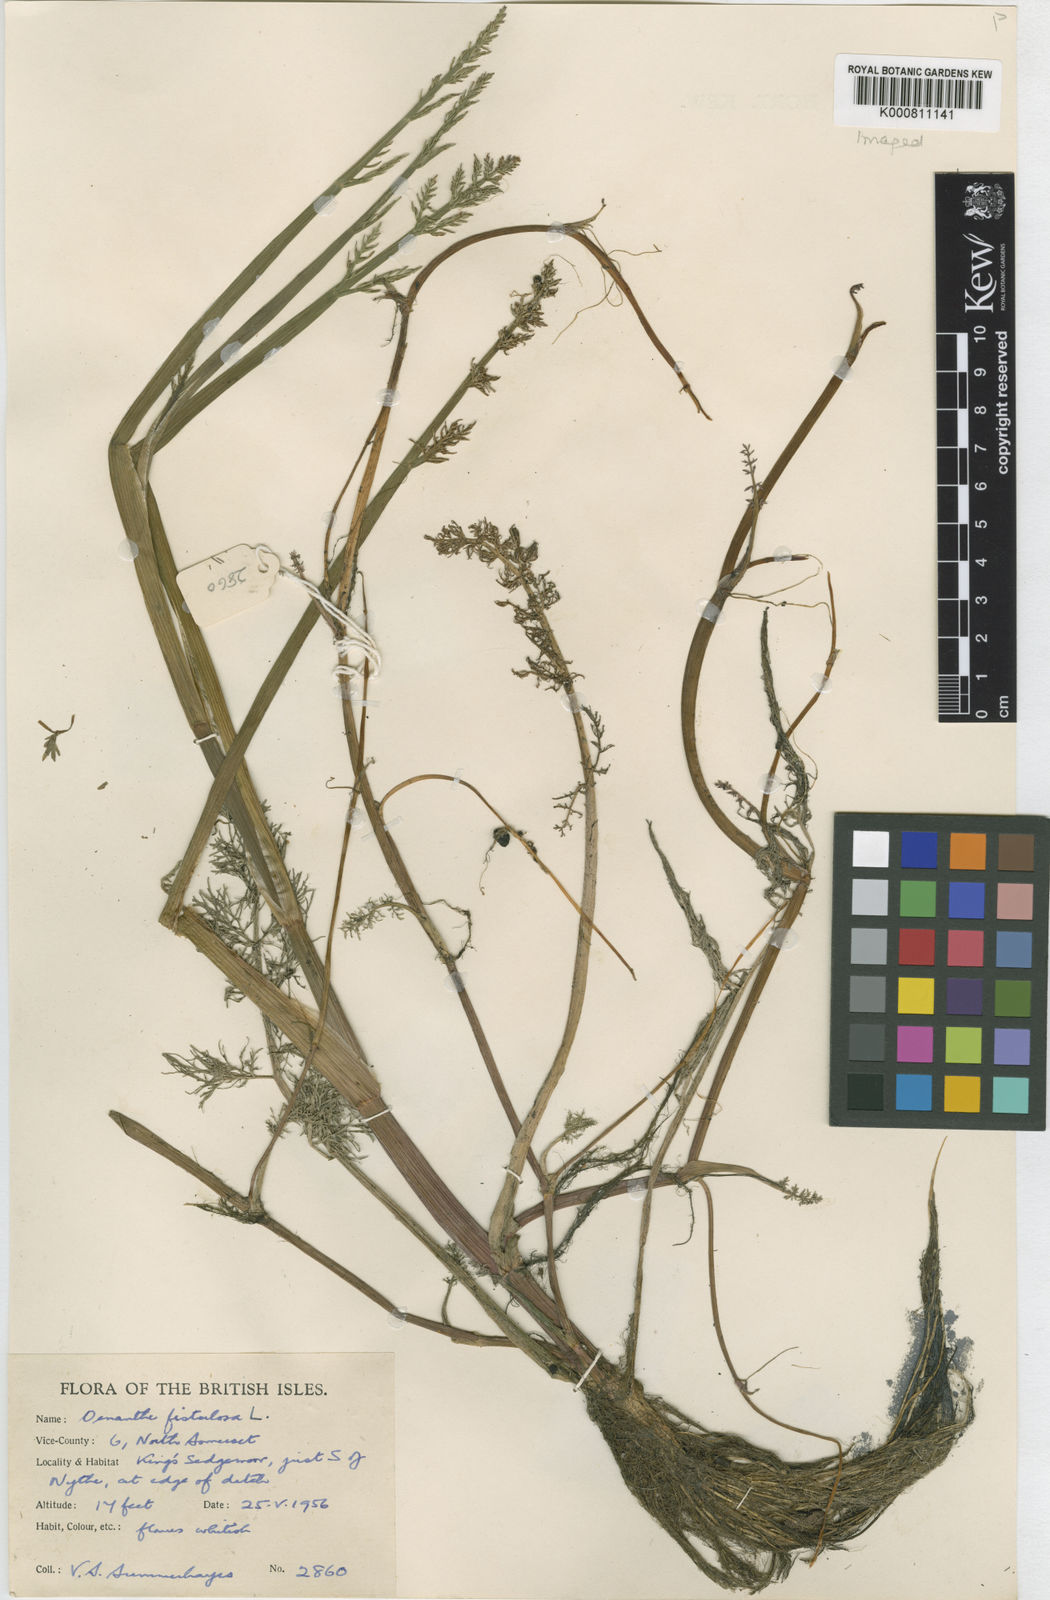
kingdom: Plantae
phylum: Tracheophyta
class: Magnoliopsida
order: Apiales
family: Apiaceae
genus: Oenanthe
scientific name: Oenanthe fistulosa
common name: Tubular water-dropwort
